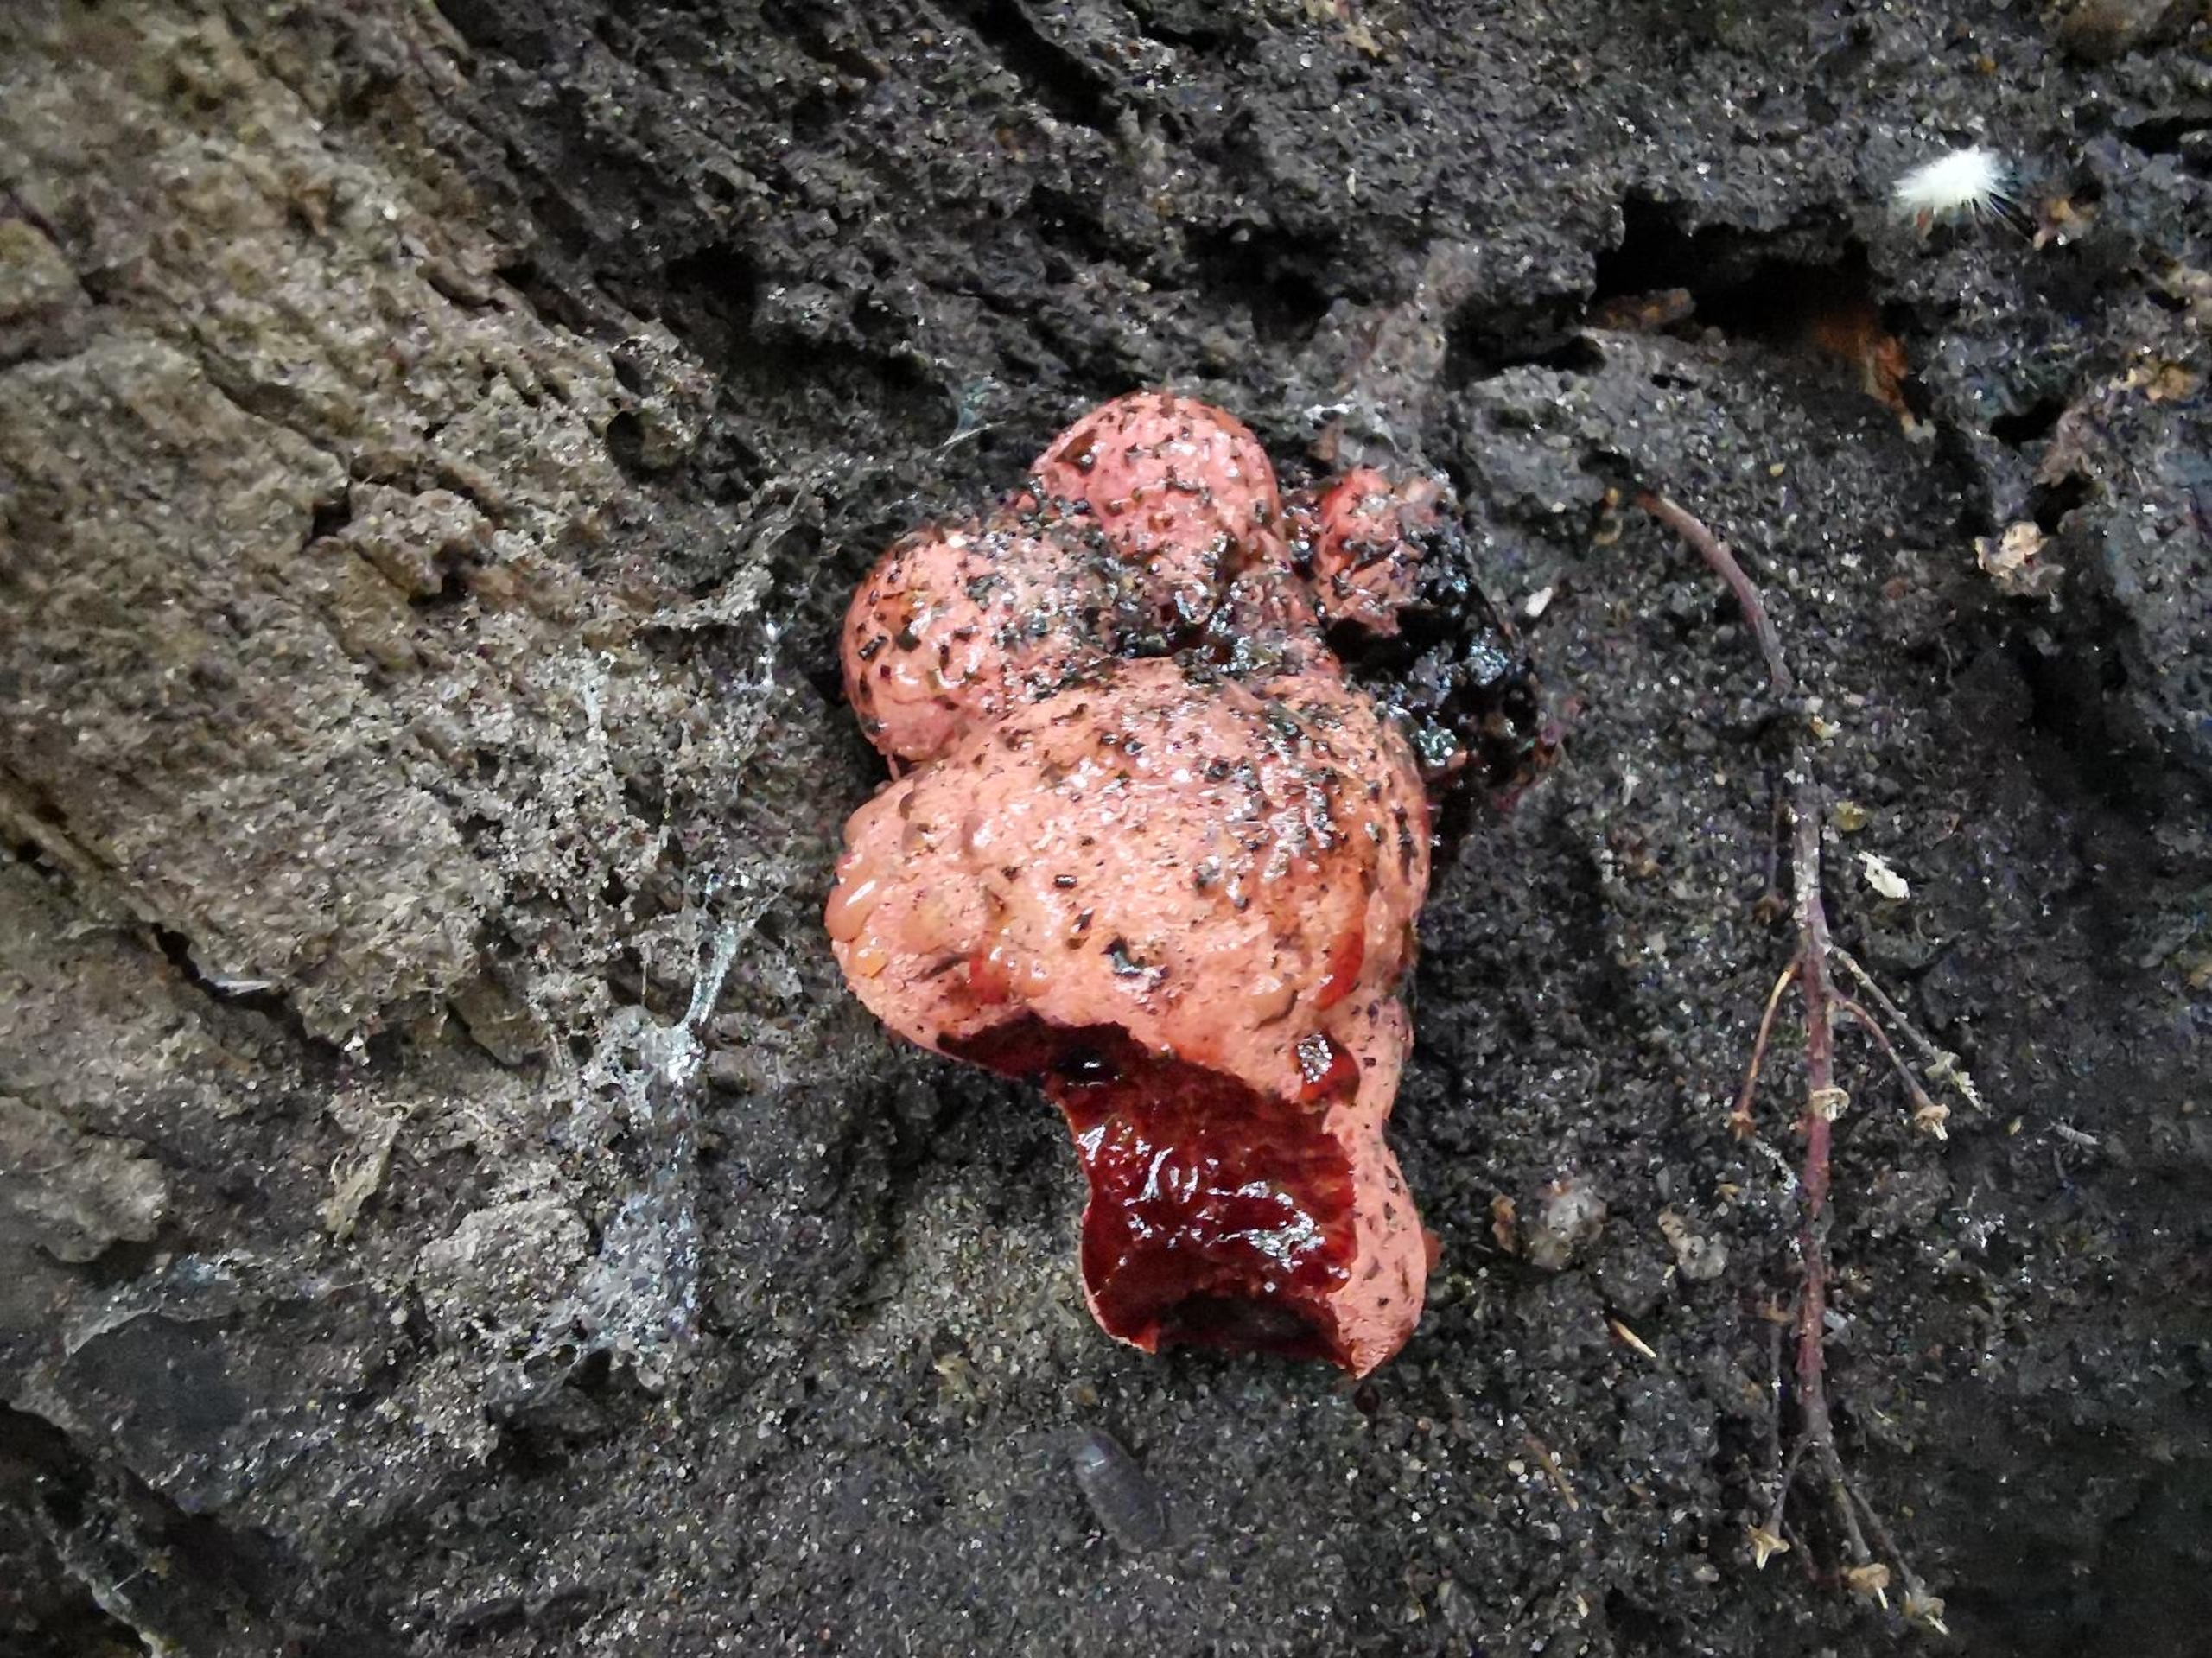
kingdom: Fungi
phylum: Basidiomycota
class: Agaricomycetes
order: Agaricales
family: Fistulinaceae
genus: Fistulina
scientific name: Fistulina hepatica
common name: Oksetunge
